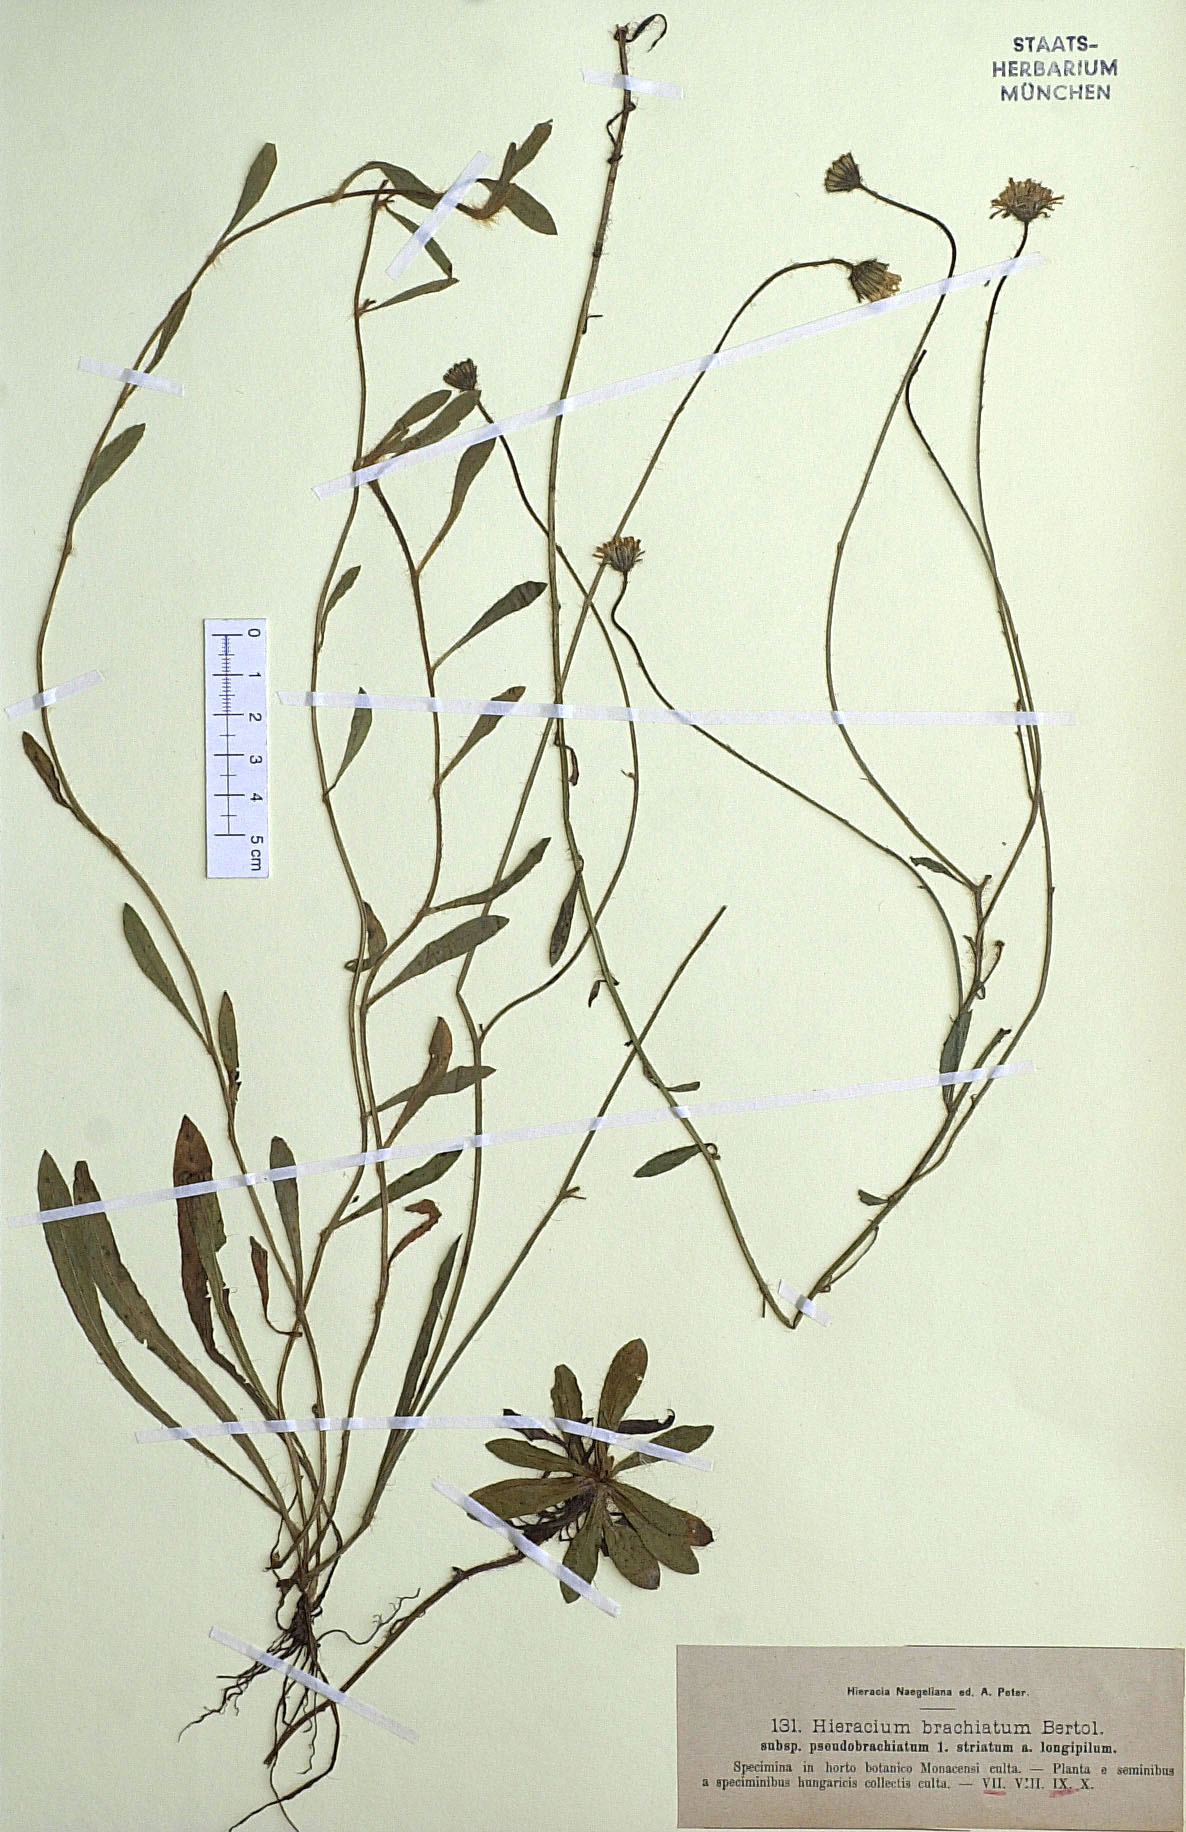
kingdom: Plantae
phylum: Tracheophyta
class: Magnoliopsida
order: Asterales
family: Asteraceae
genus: Pilosella
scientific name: Pilosella acutifolia
